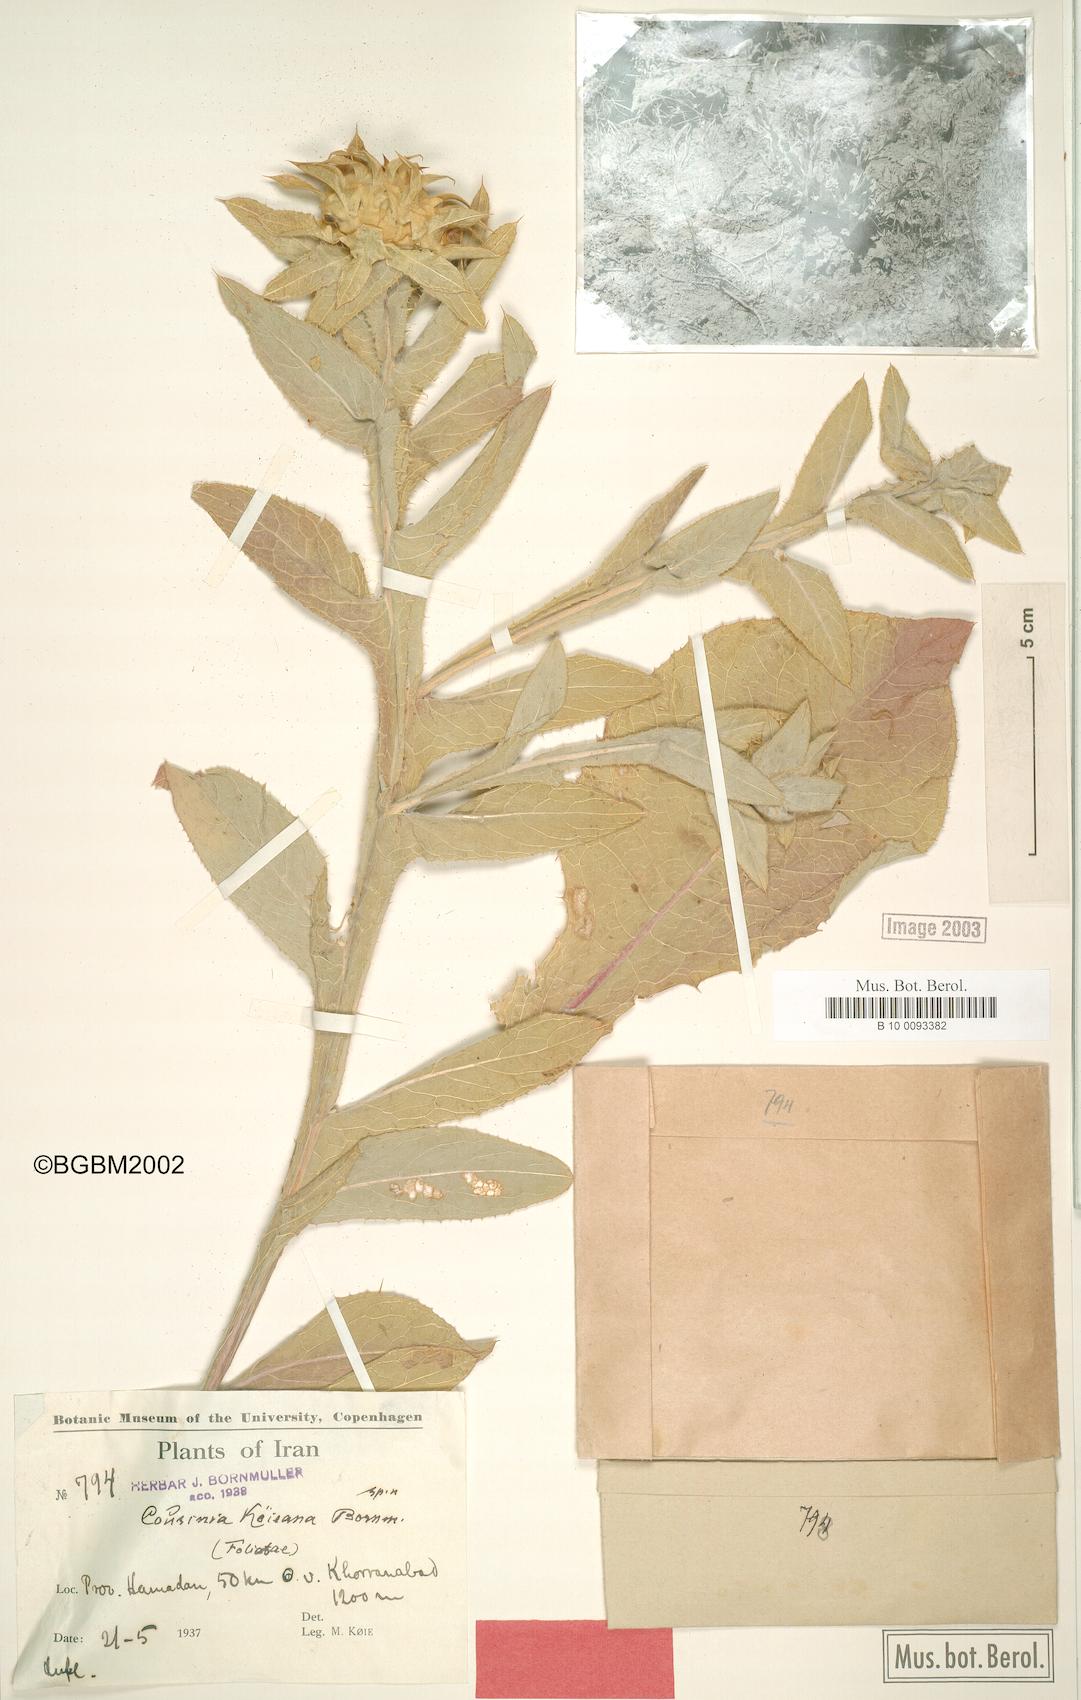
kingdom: Plantae
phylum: Tracheophyta
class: Magnoliopsida
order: Asterales
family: Asteraceae
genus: Cousinia
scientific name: Cousinia sagittata
